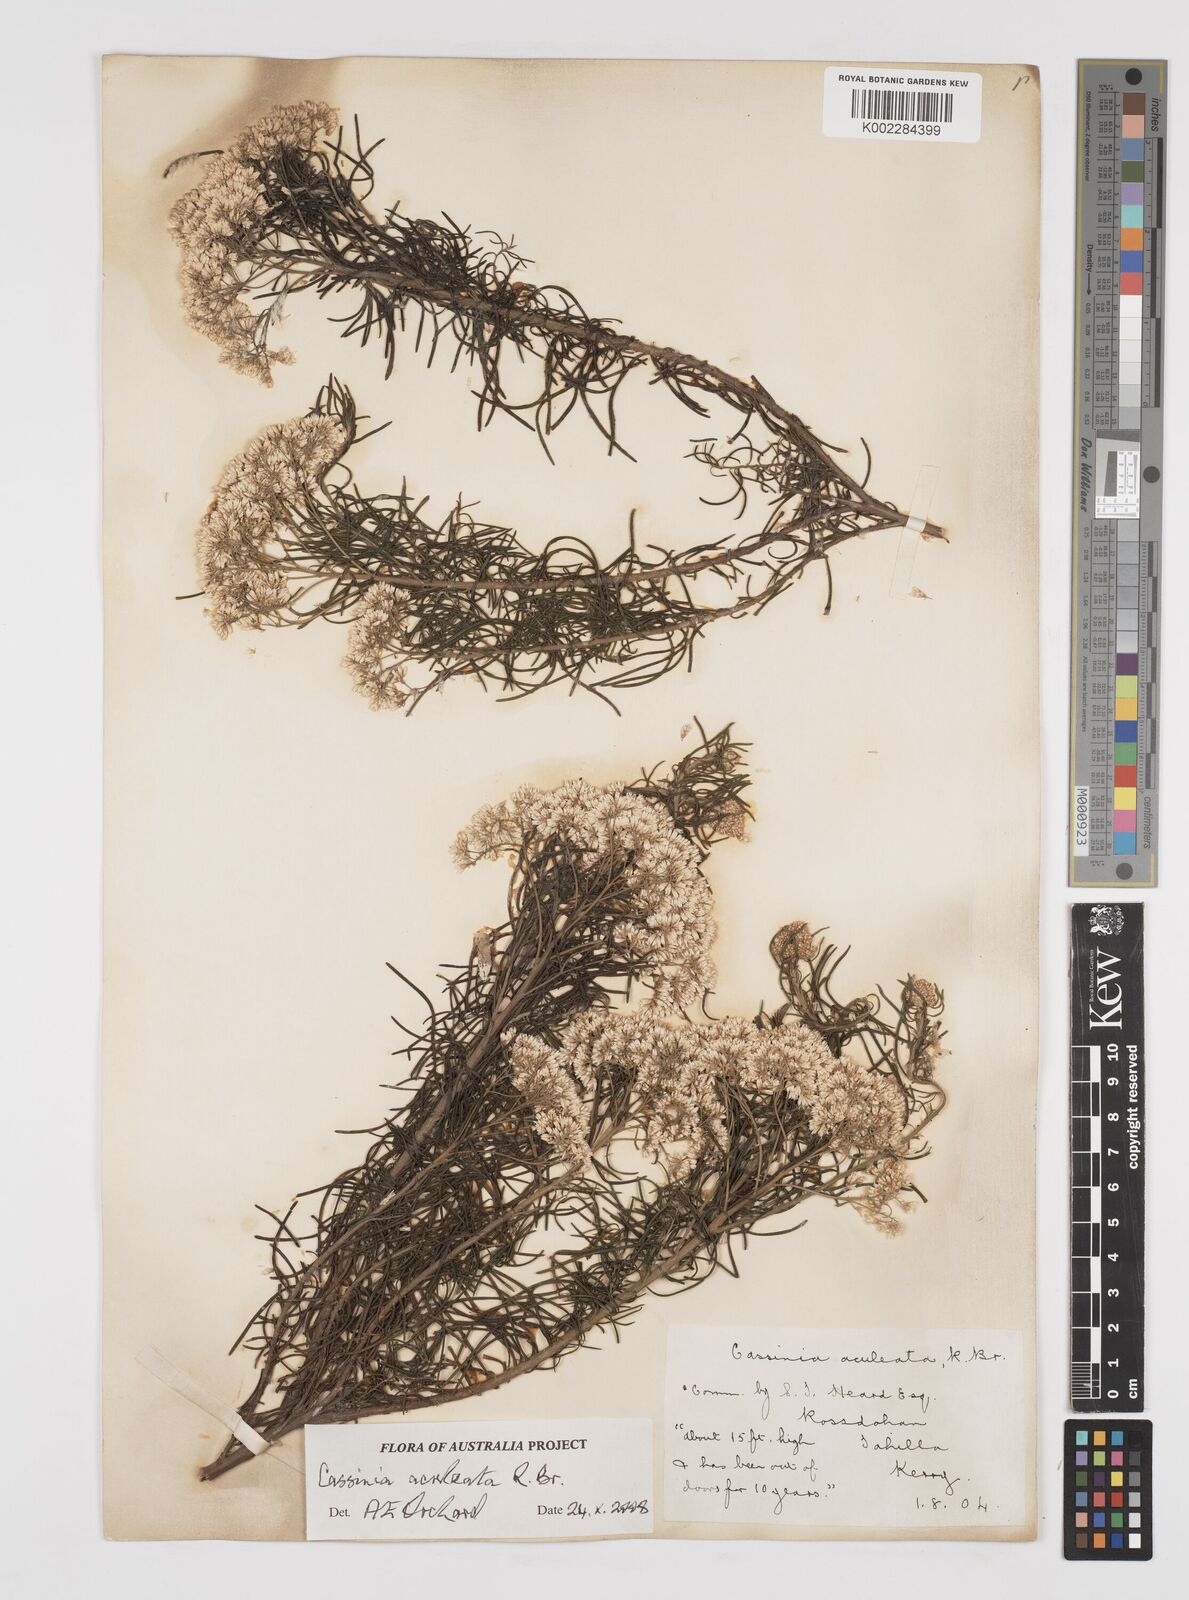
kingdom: Plantae
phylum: Tracheophyta
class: Magnoliopsida
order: Asterales
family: Asteraceae
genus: Cassinia
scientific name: Cassinia aculeata
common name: Australian tauhinu
